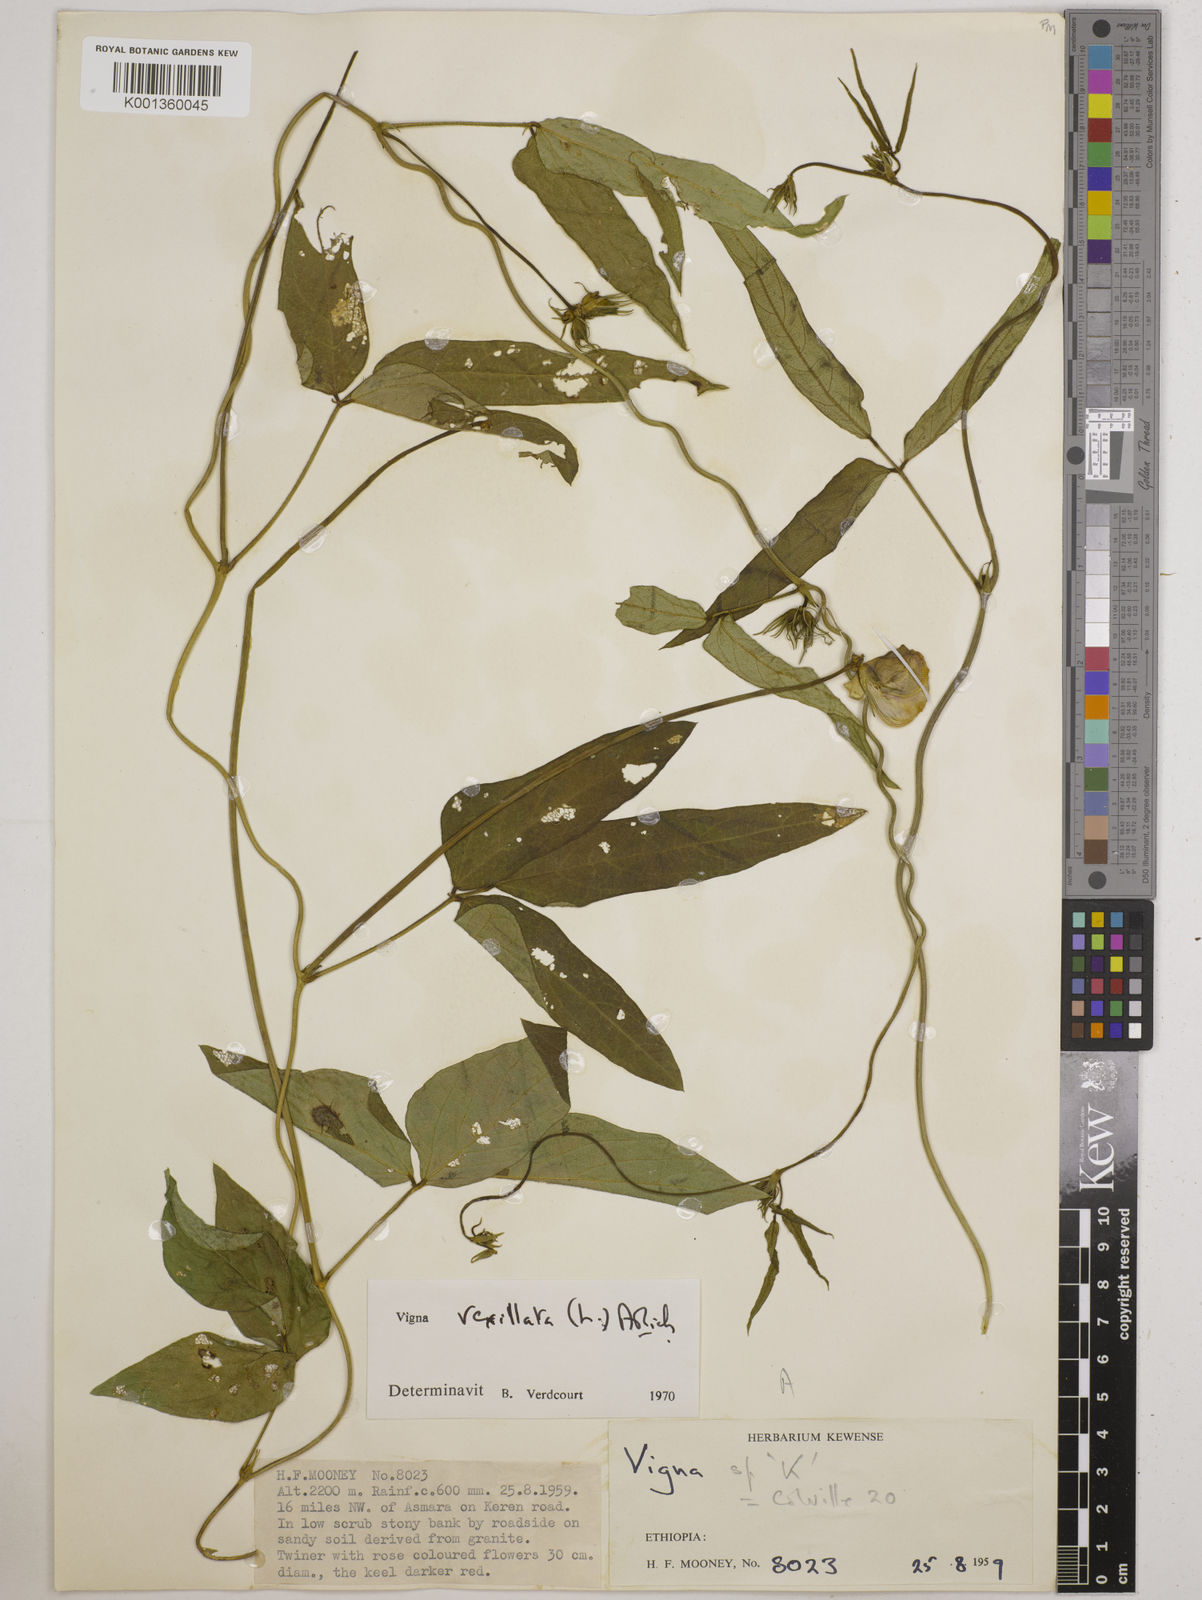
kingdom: Plantae
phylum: Tracheophyta
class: Magnoliopsida
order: Fabales
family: Fabaceae
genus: Vigna
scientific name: Vigna vexillata
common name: Zombi pea
